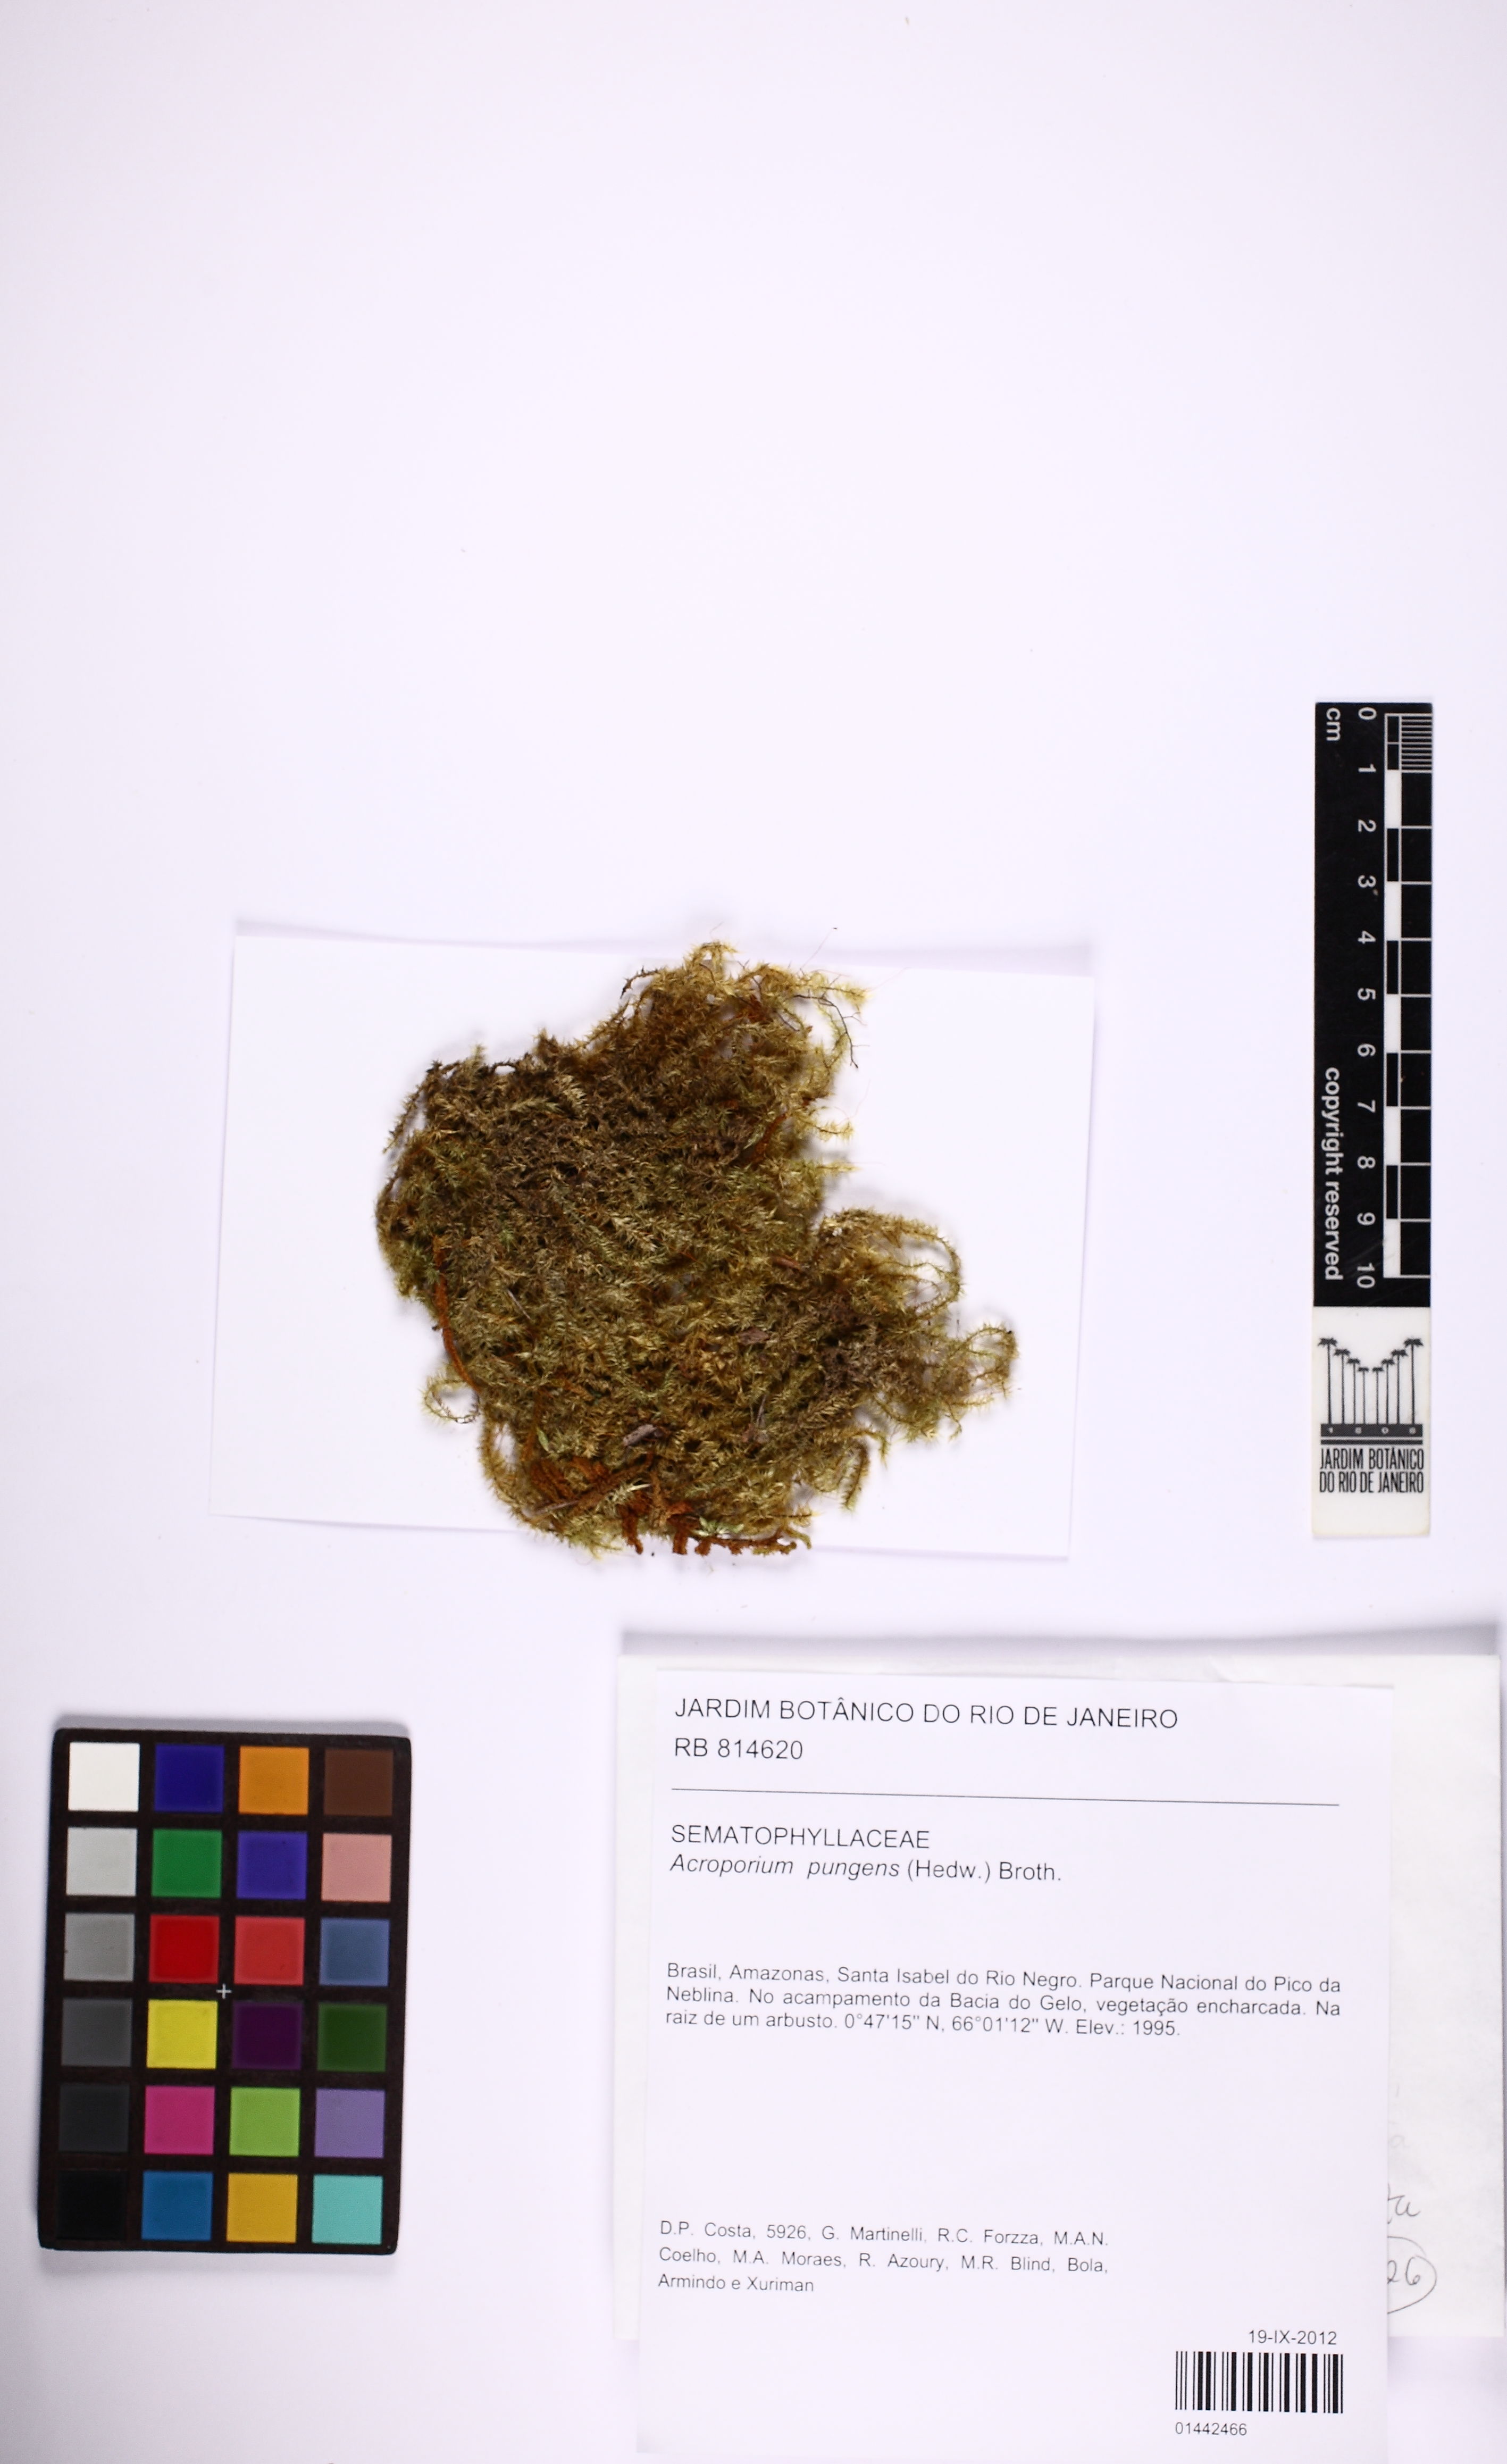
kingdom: Plantae
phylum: Bryophyta
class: Bryopsida
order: Hypnales
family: Sematophyllaceae
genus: Acroporium
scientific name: Acroporium pungens
